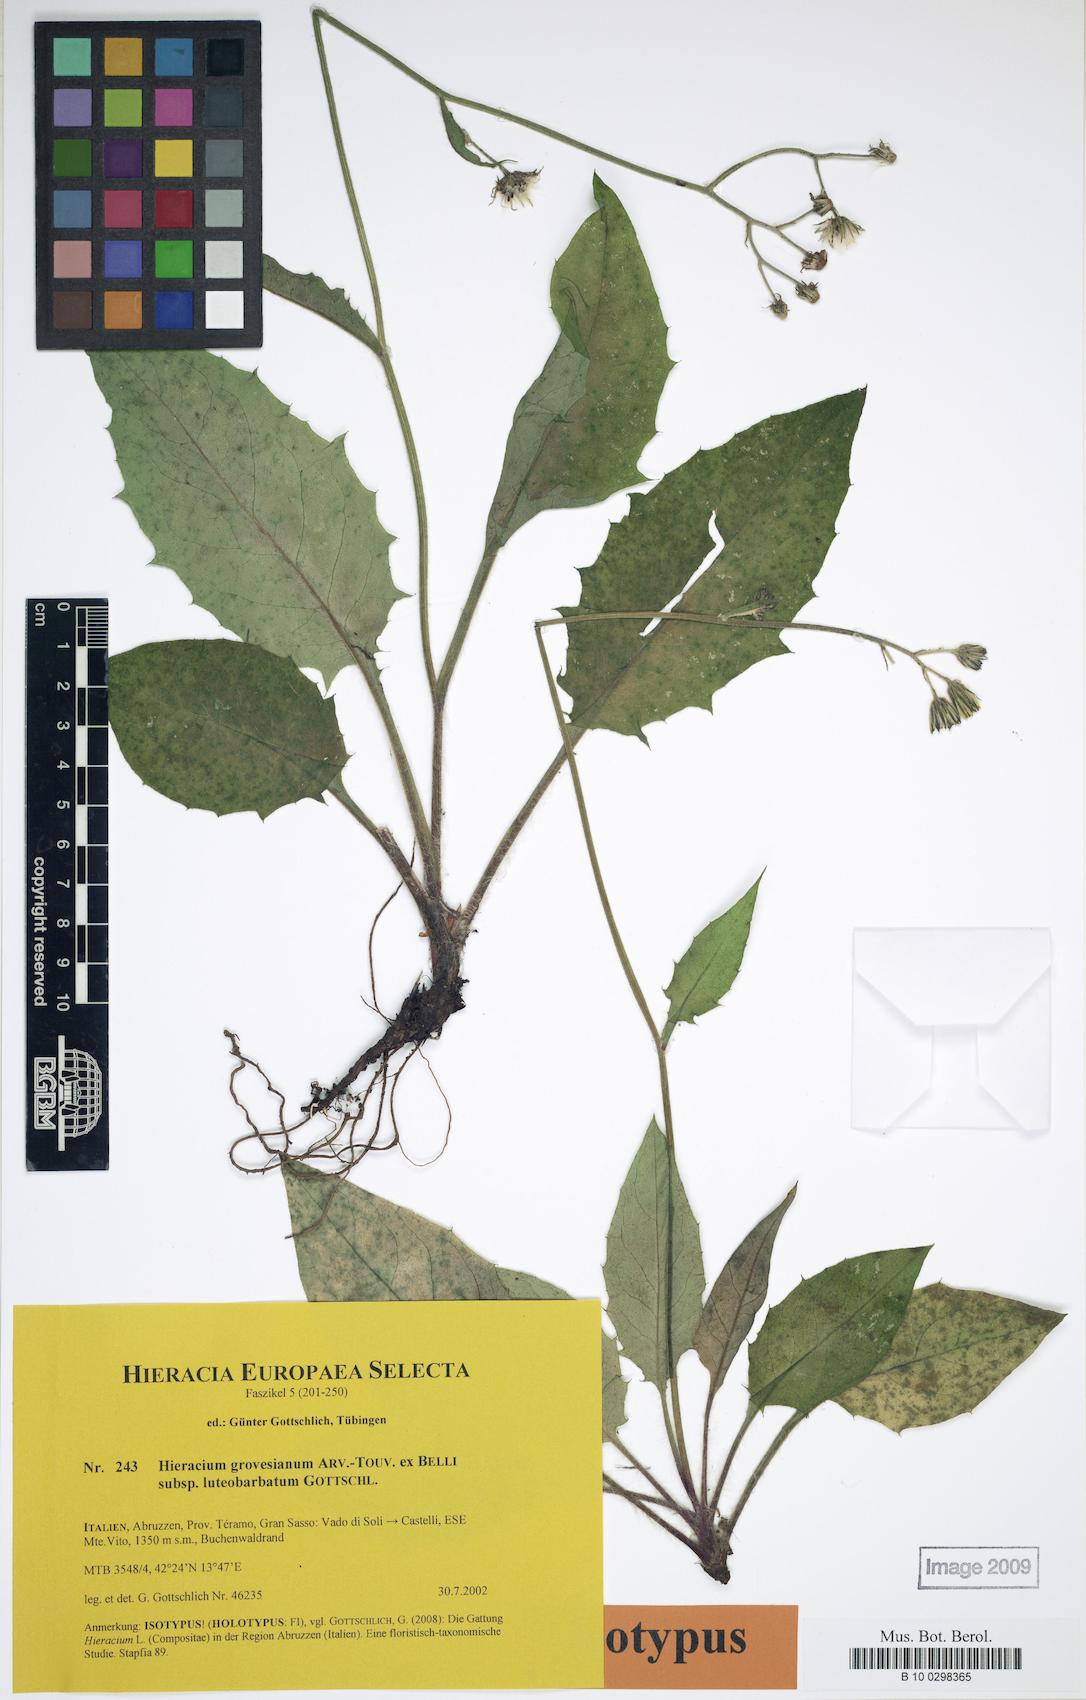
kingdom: Plantae
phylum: Tracheophyta
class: Magnoliopsida
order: Asterales
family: Asteraceae
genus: Hieracium
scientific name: Hieracium grovesianum
